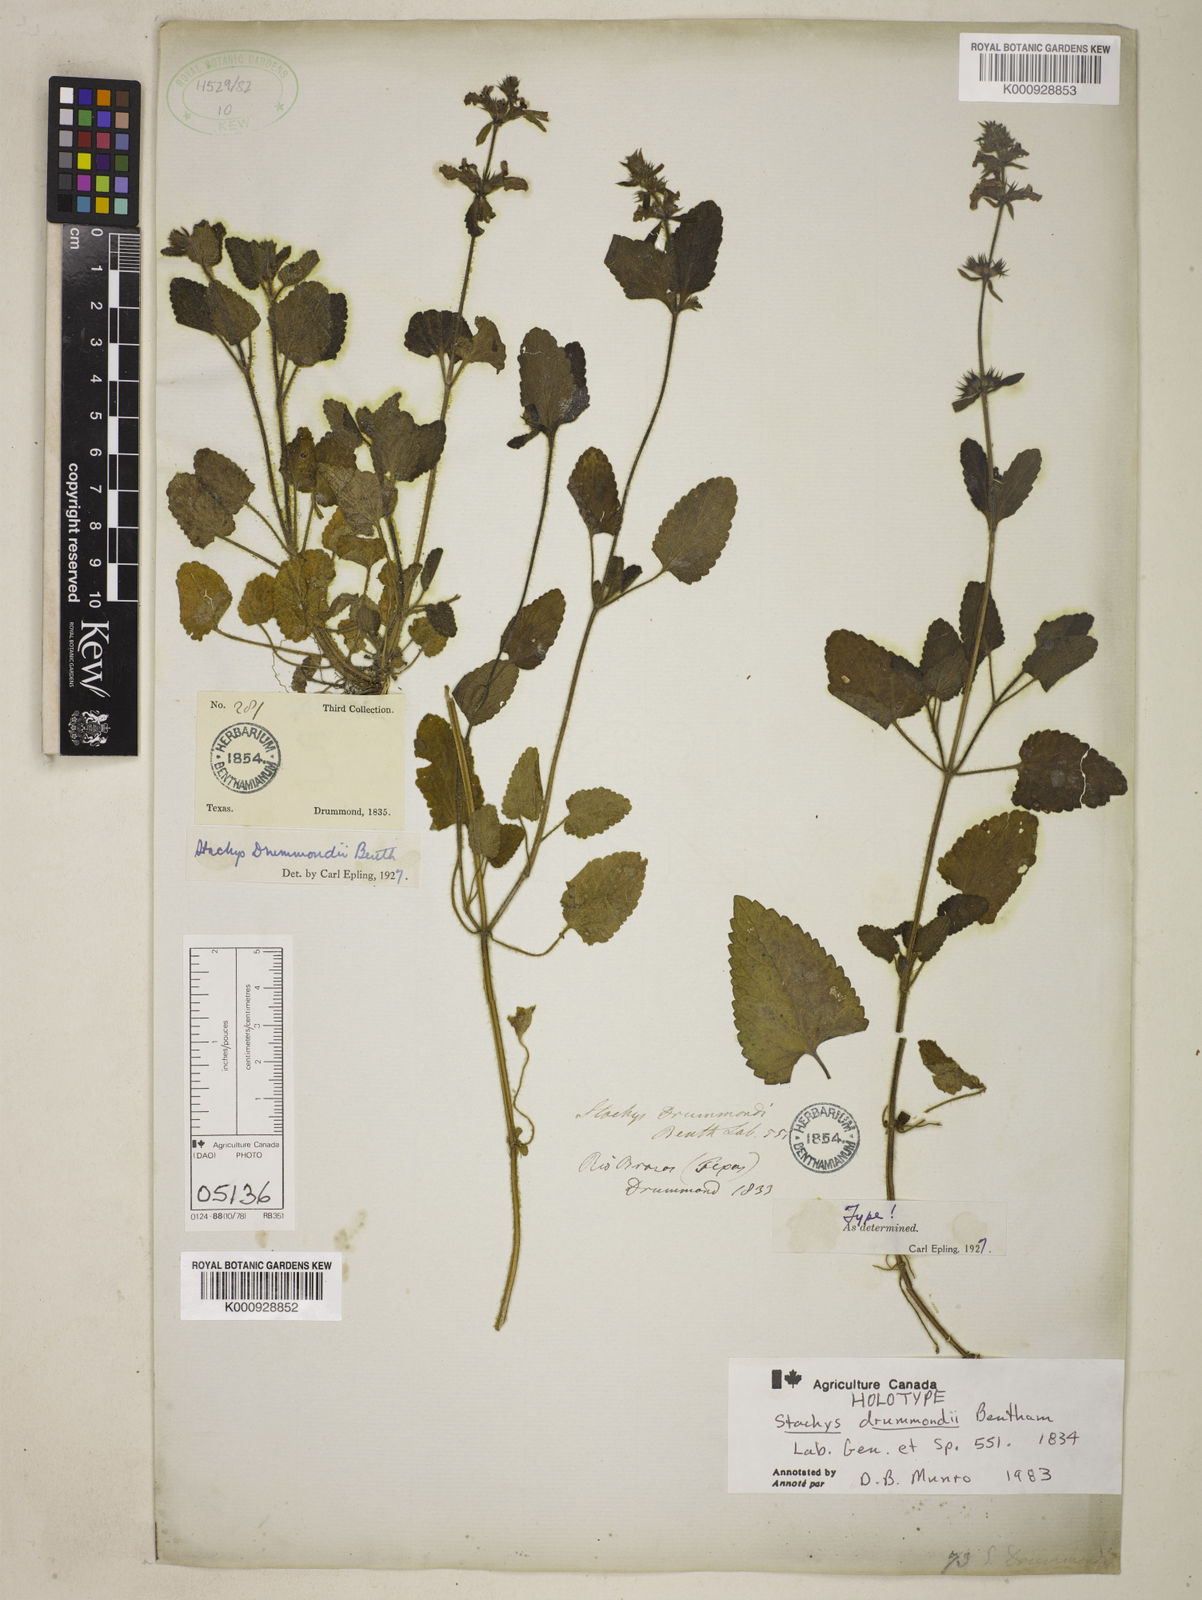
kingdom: Plantae
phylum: Tracheophyta
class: Magnoliopsida
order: Lamiales
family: Lamiaceae
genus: Stachys
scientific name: Stachys drummondii
